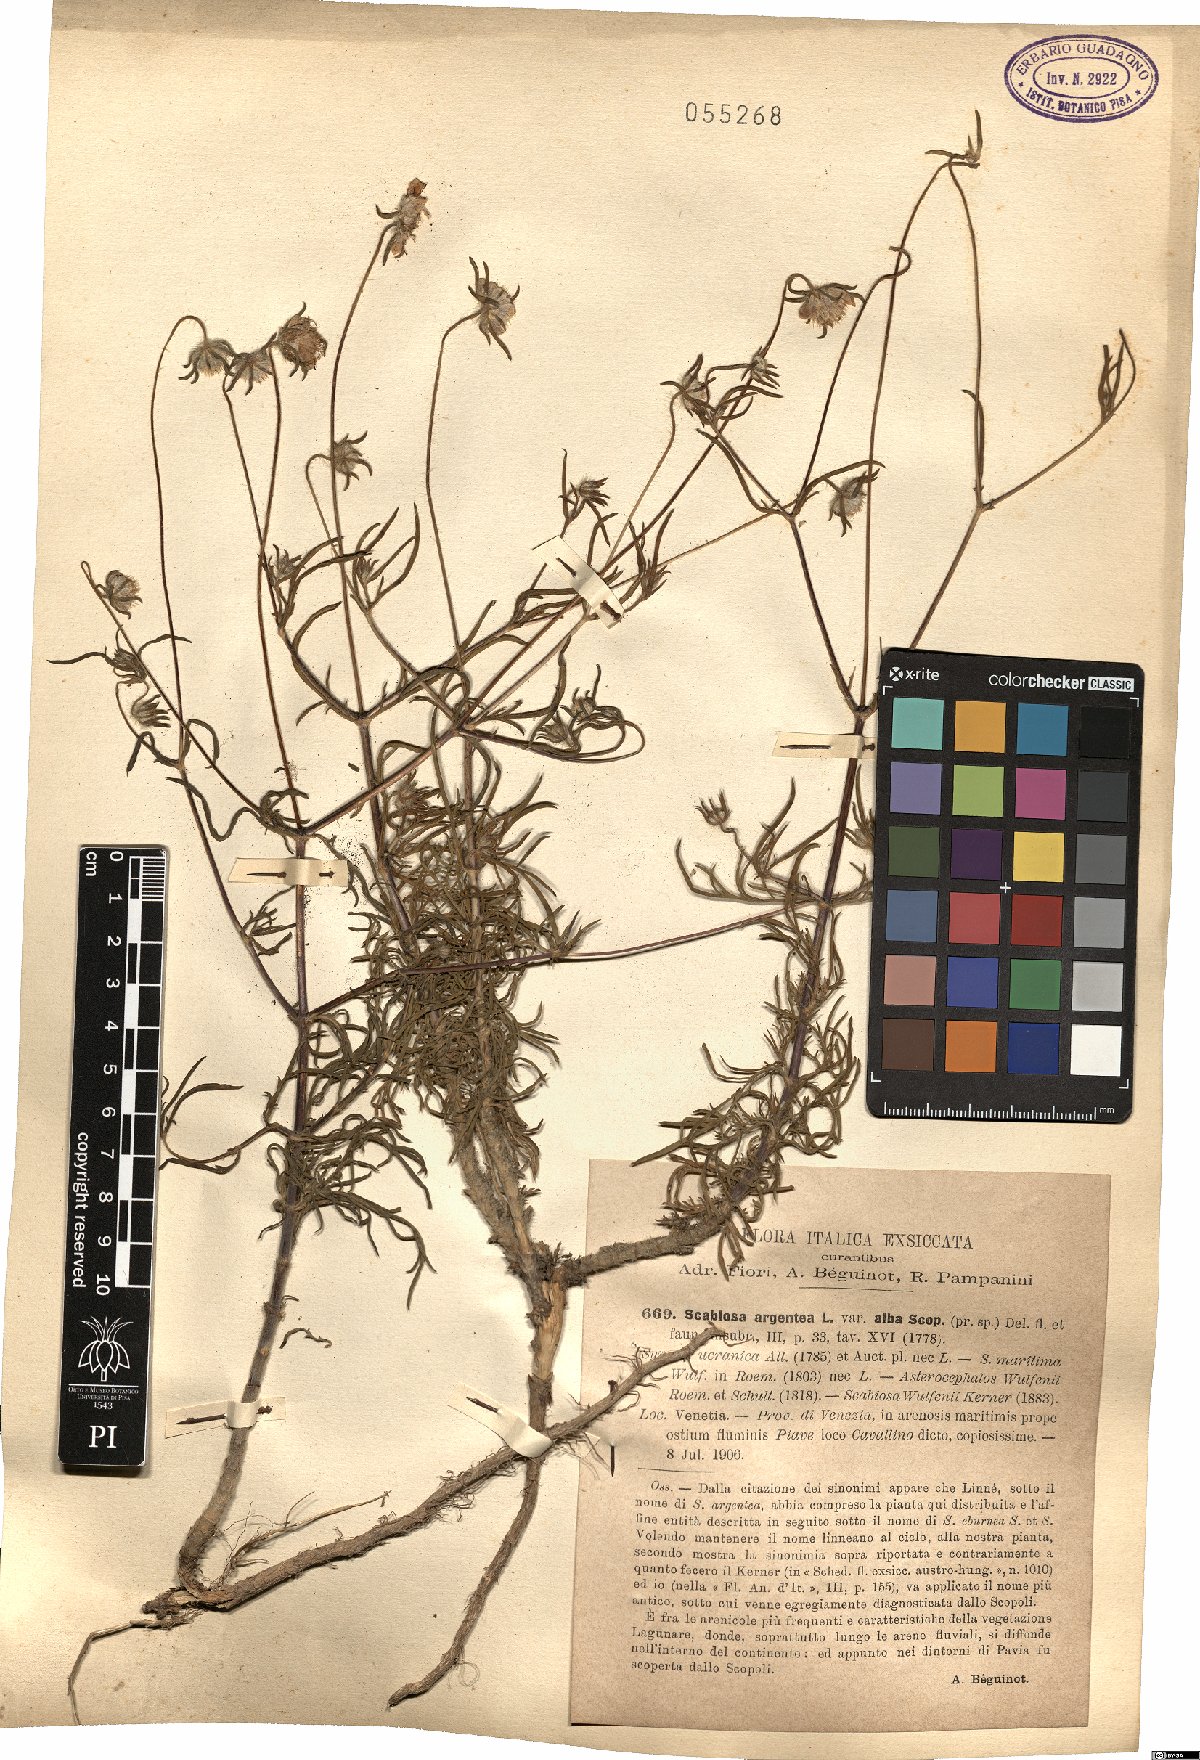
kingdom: Plantae
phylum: Tracheophyta
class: Magnoliopsida
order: Dipsacales
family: Caprifoliaceae
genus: Lomelosia
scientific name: Lomelosia
